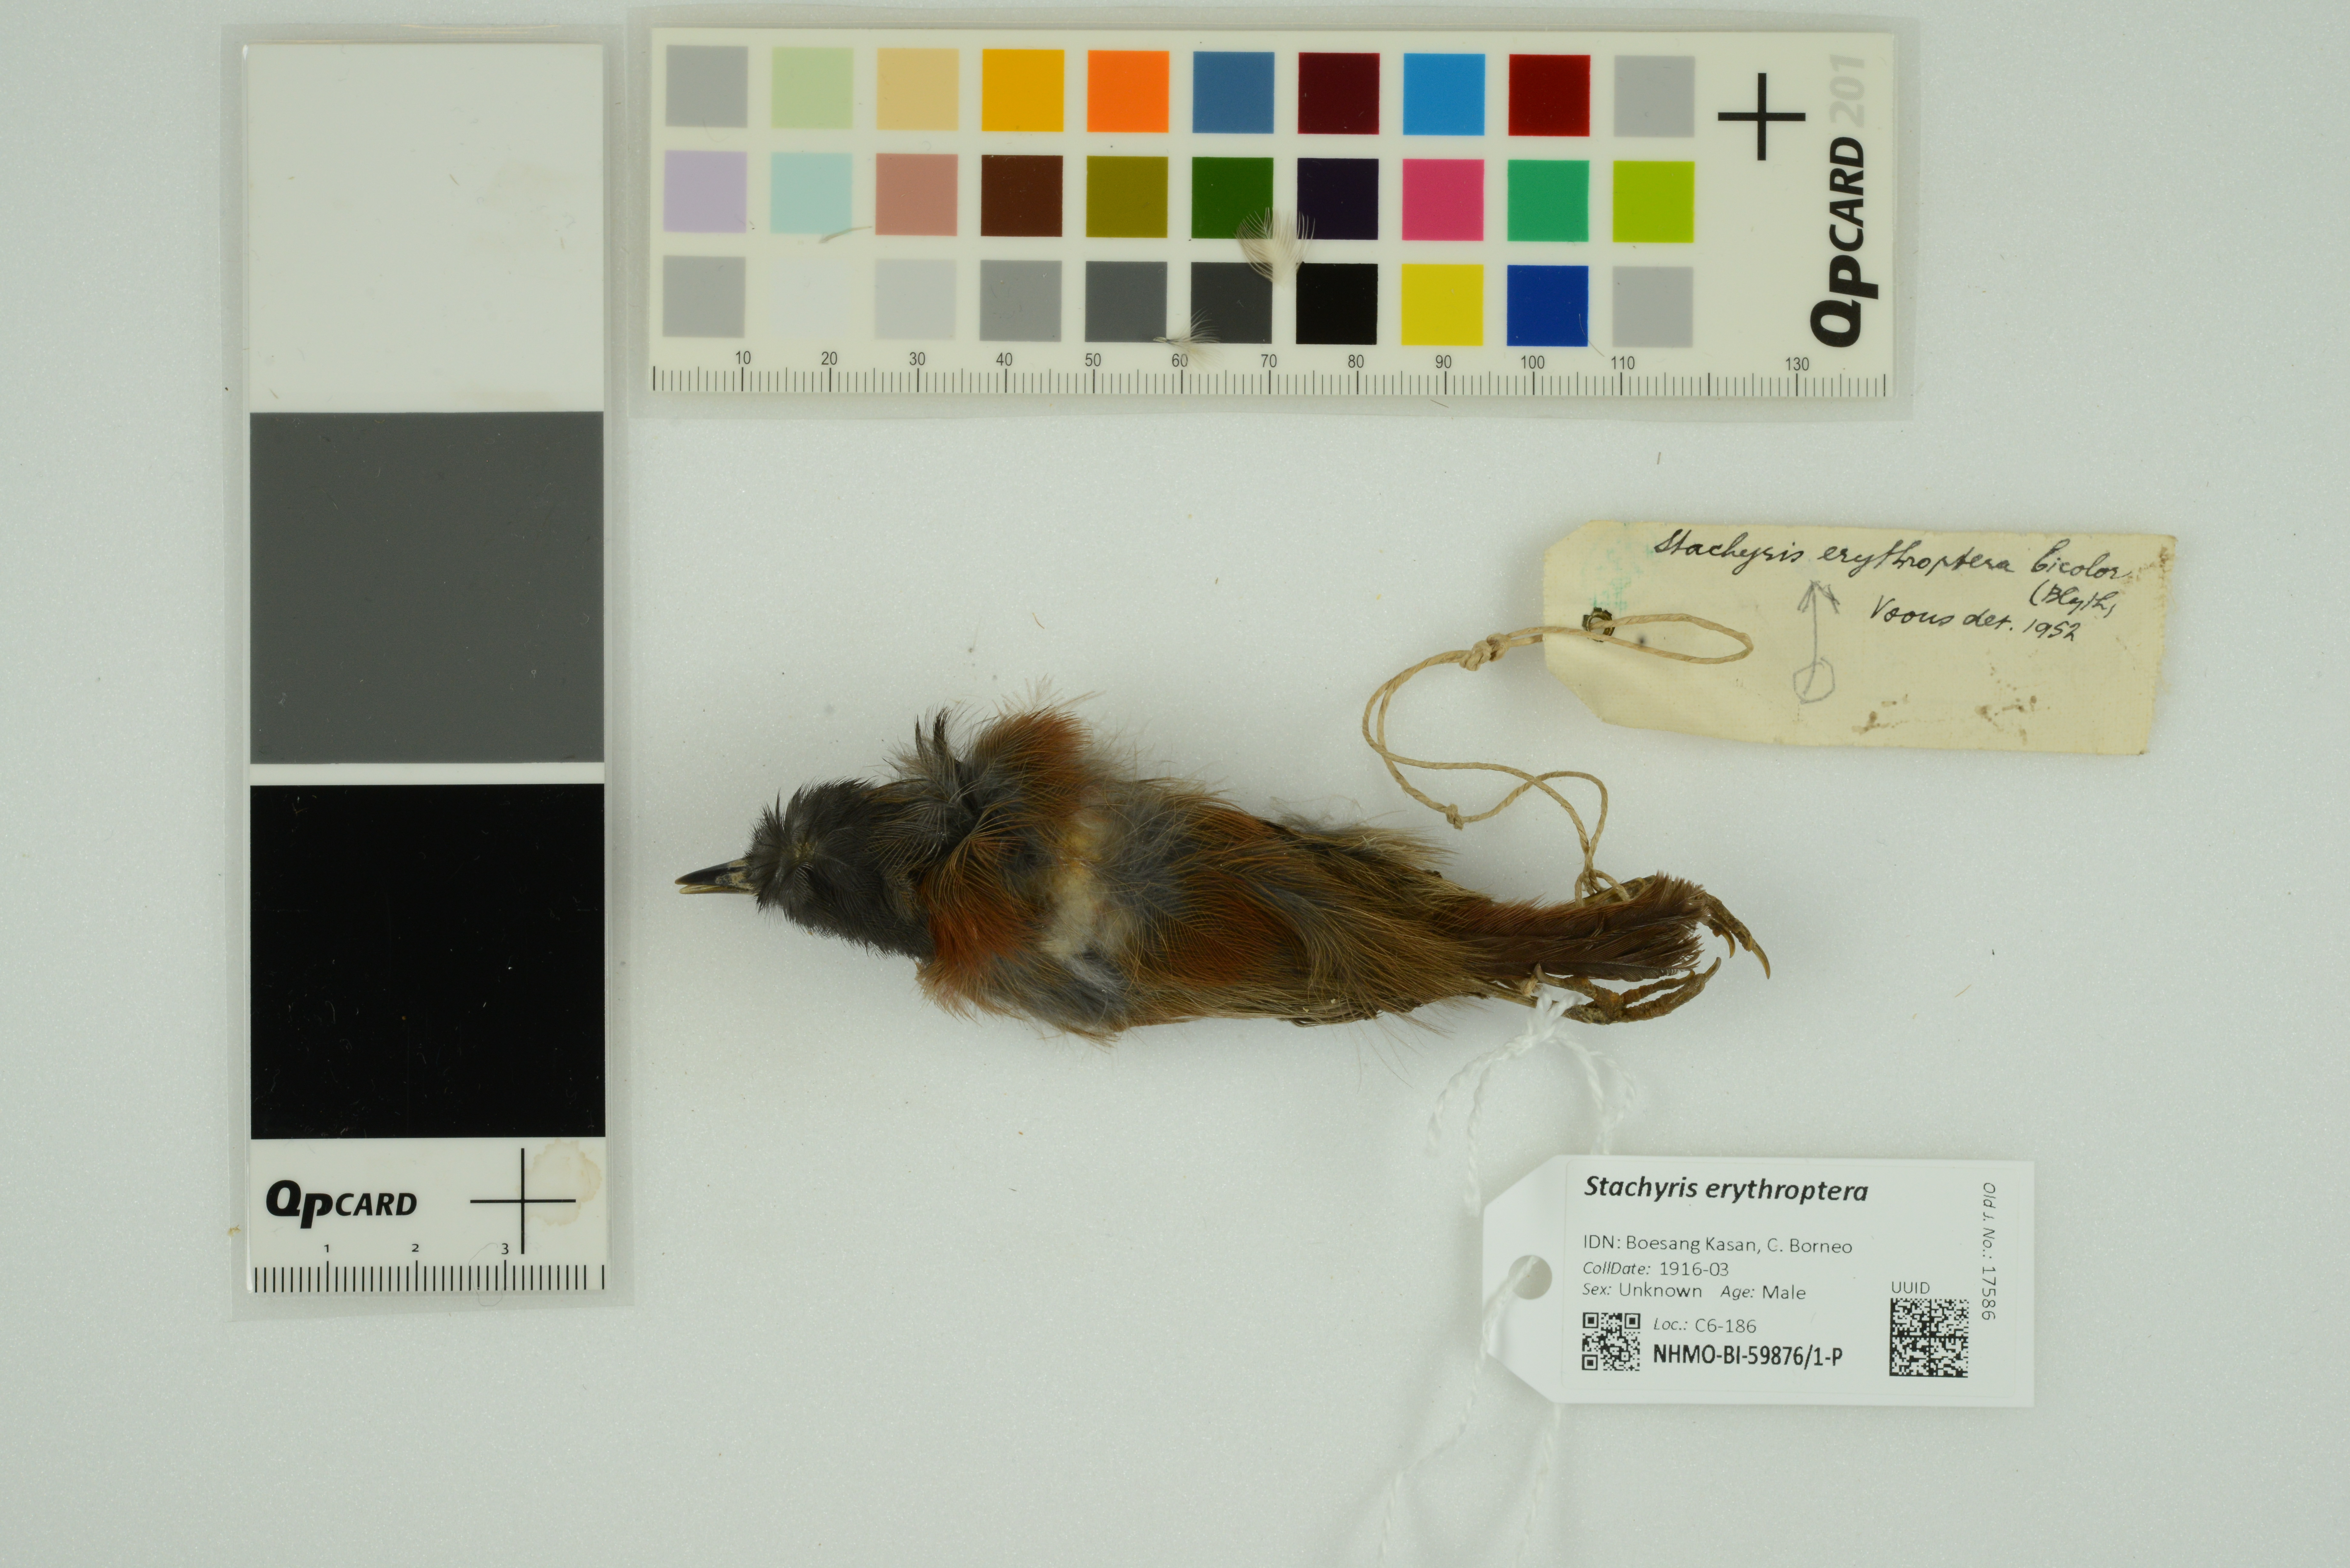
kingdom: Animalia
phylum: Chordata
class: Aves
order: Passeriformes
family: Timaliidae
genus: Stachyris
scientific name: Stachyris erythroptera
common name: Chestnut-winged babbler
